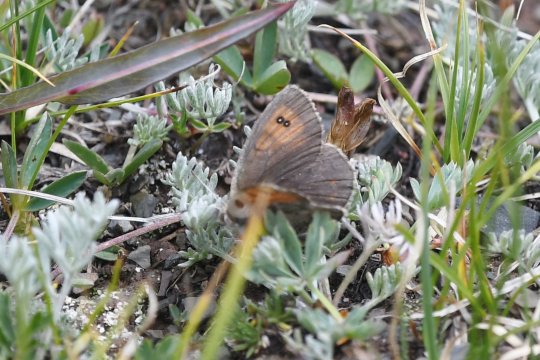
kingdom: Animalia
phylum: Arthropoda
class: Insecta
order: Lepidoptera
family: Nymphalidae
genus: Erebia
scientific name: Erebia tyndarus
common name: Colorado Alpine
